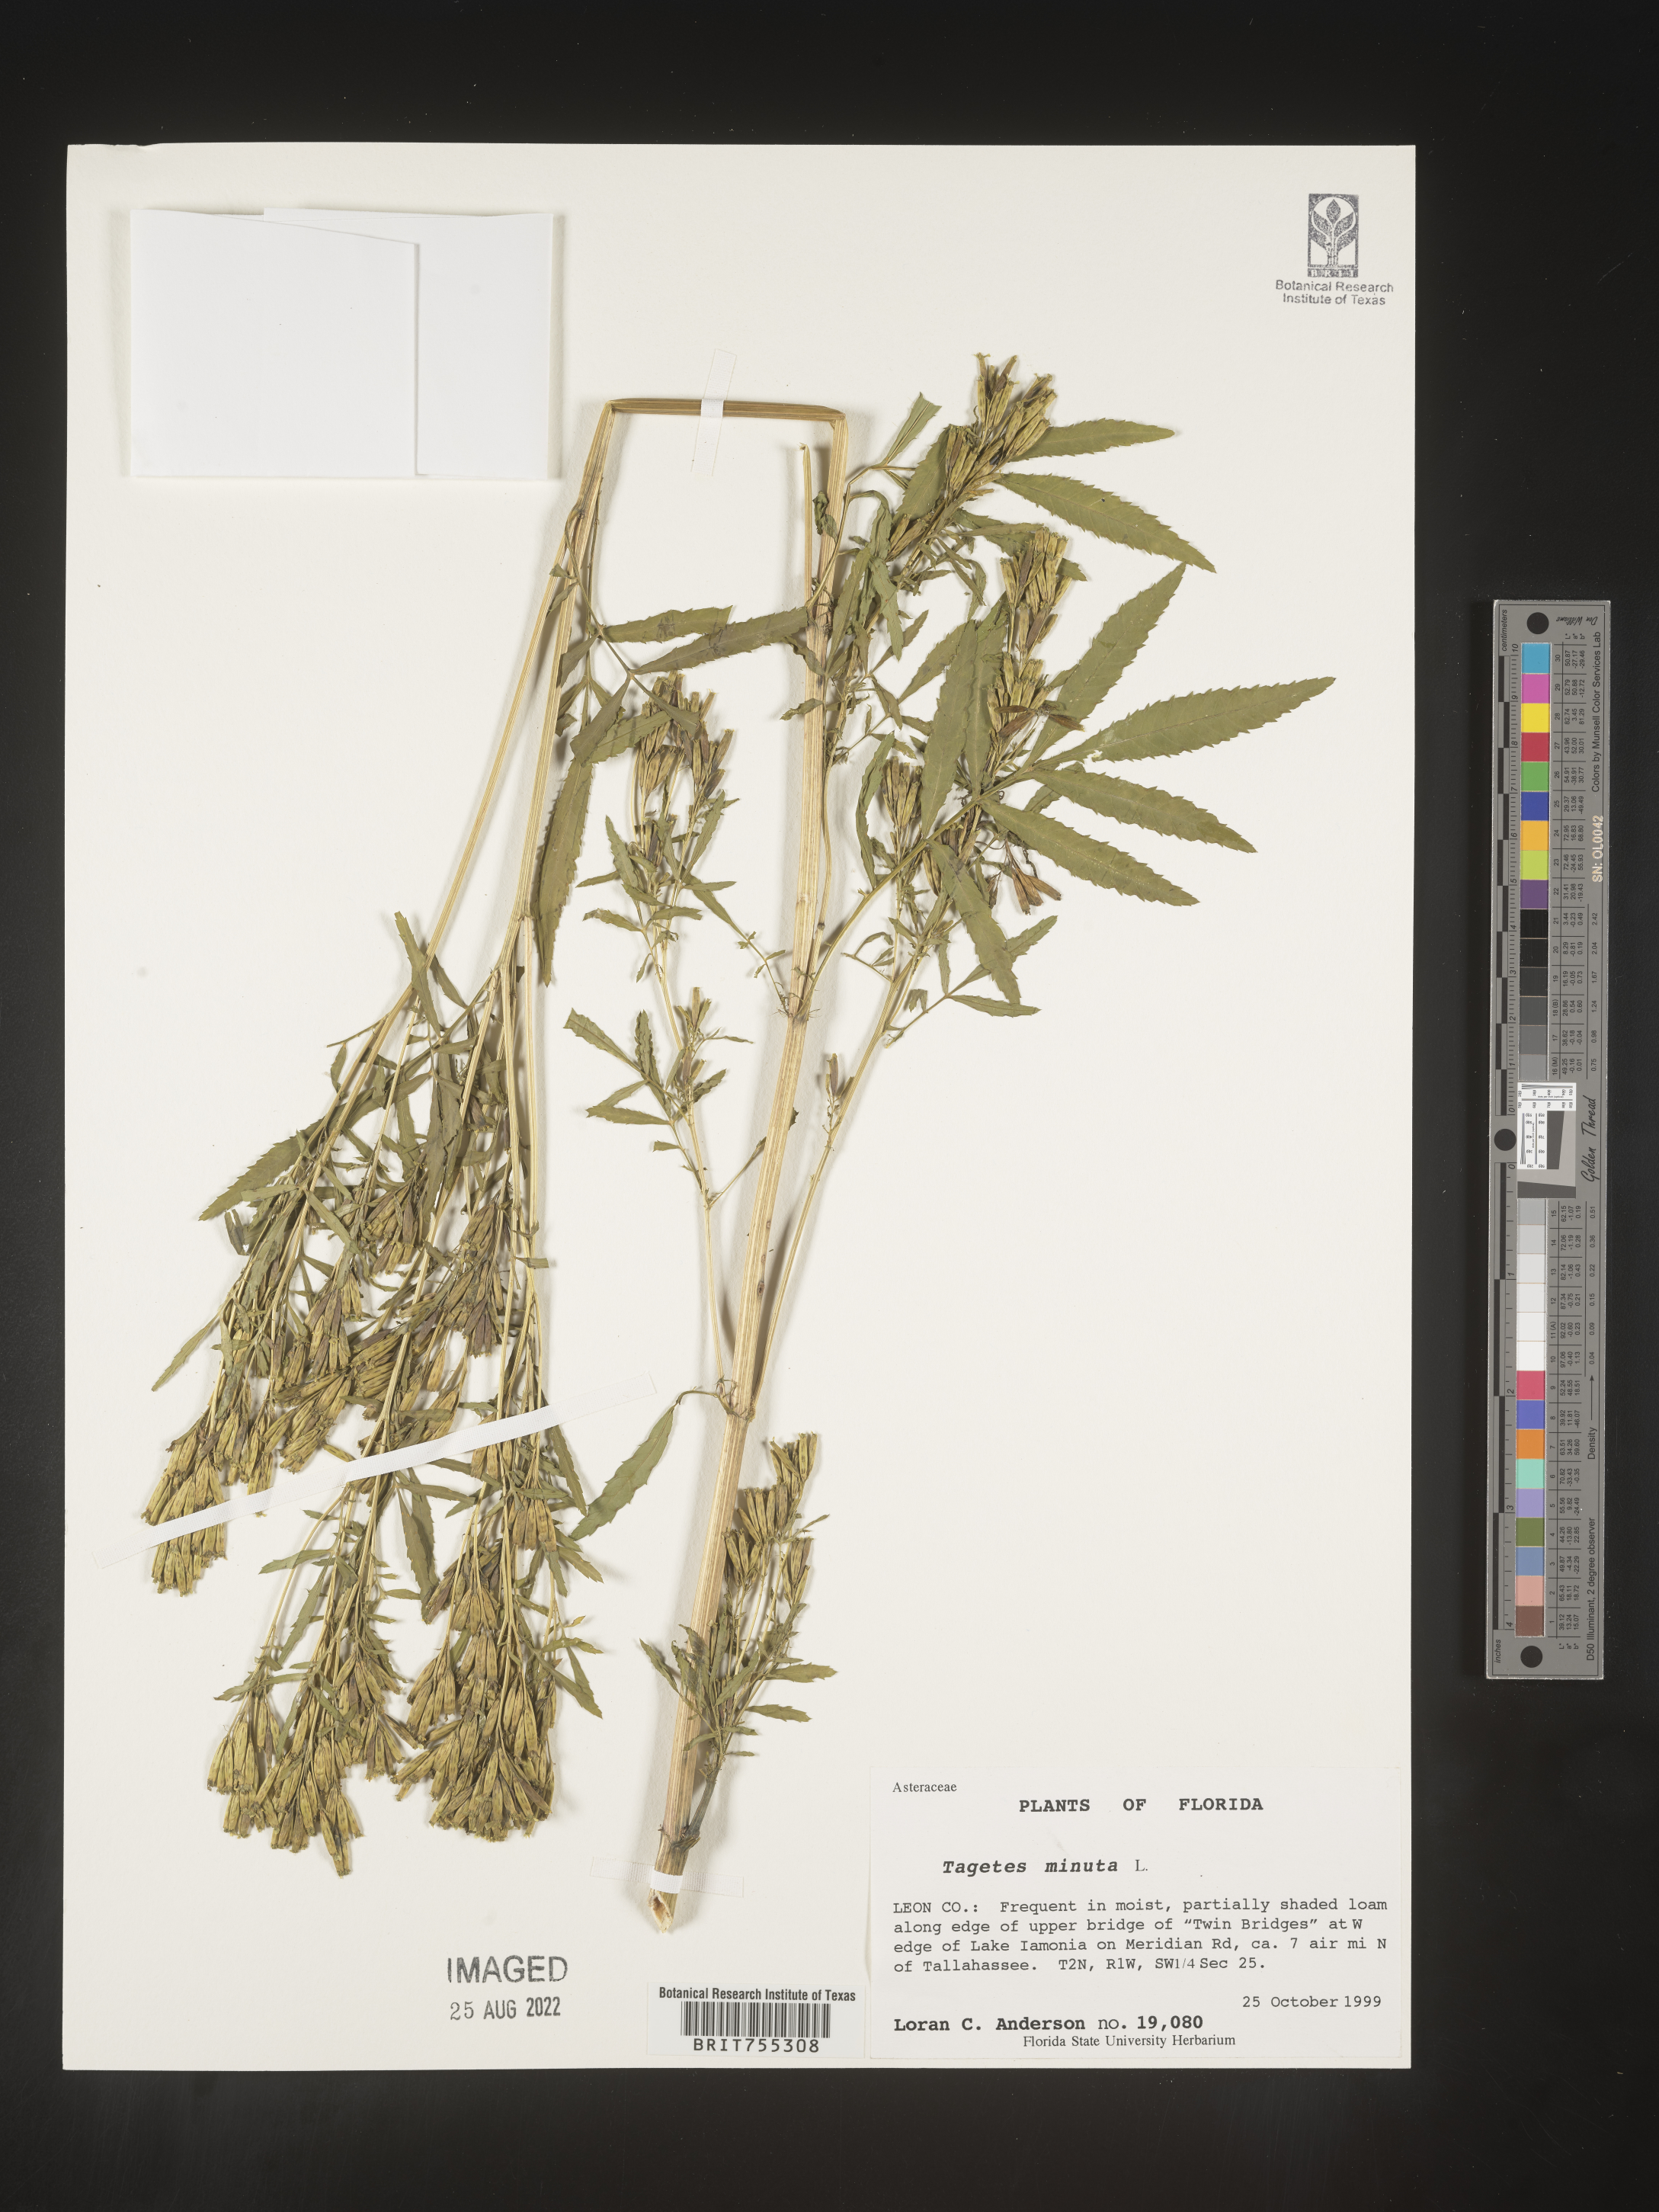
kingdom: Plantae
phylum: Tracheophyta
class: Magnoliopsida
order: Asterales
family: Asteraceae
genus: Tagetes
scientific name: Tagetes
